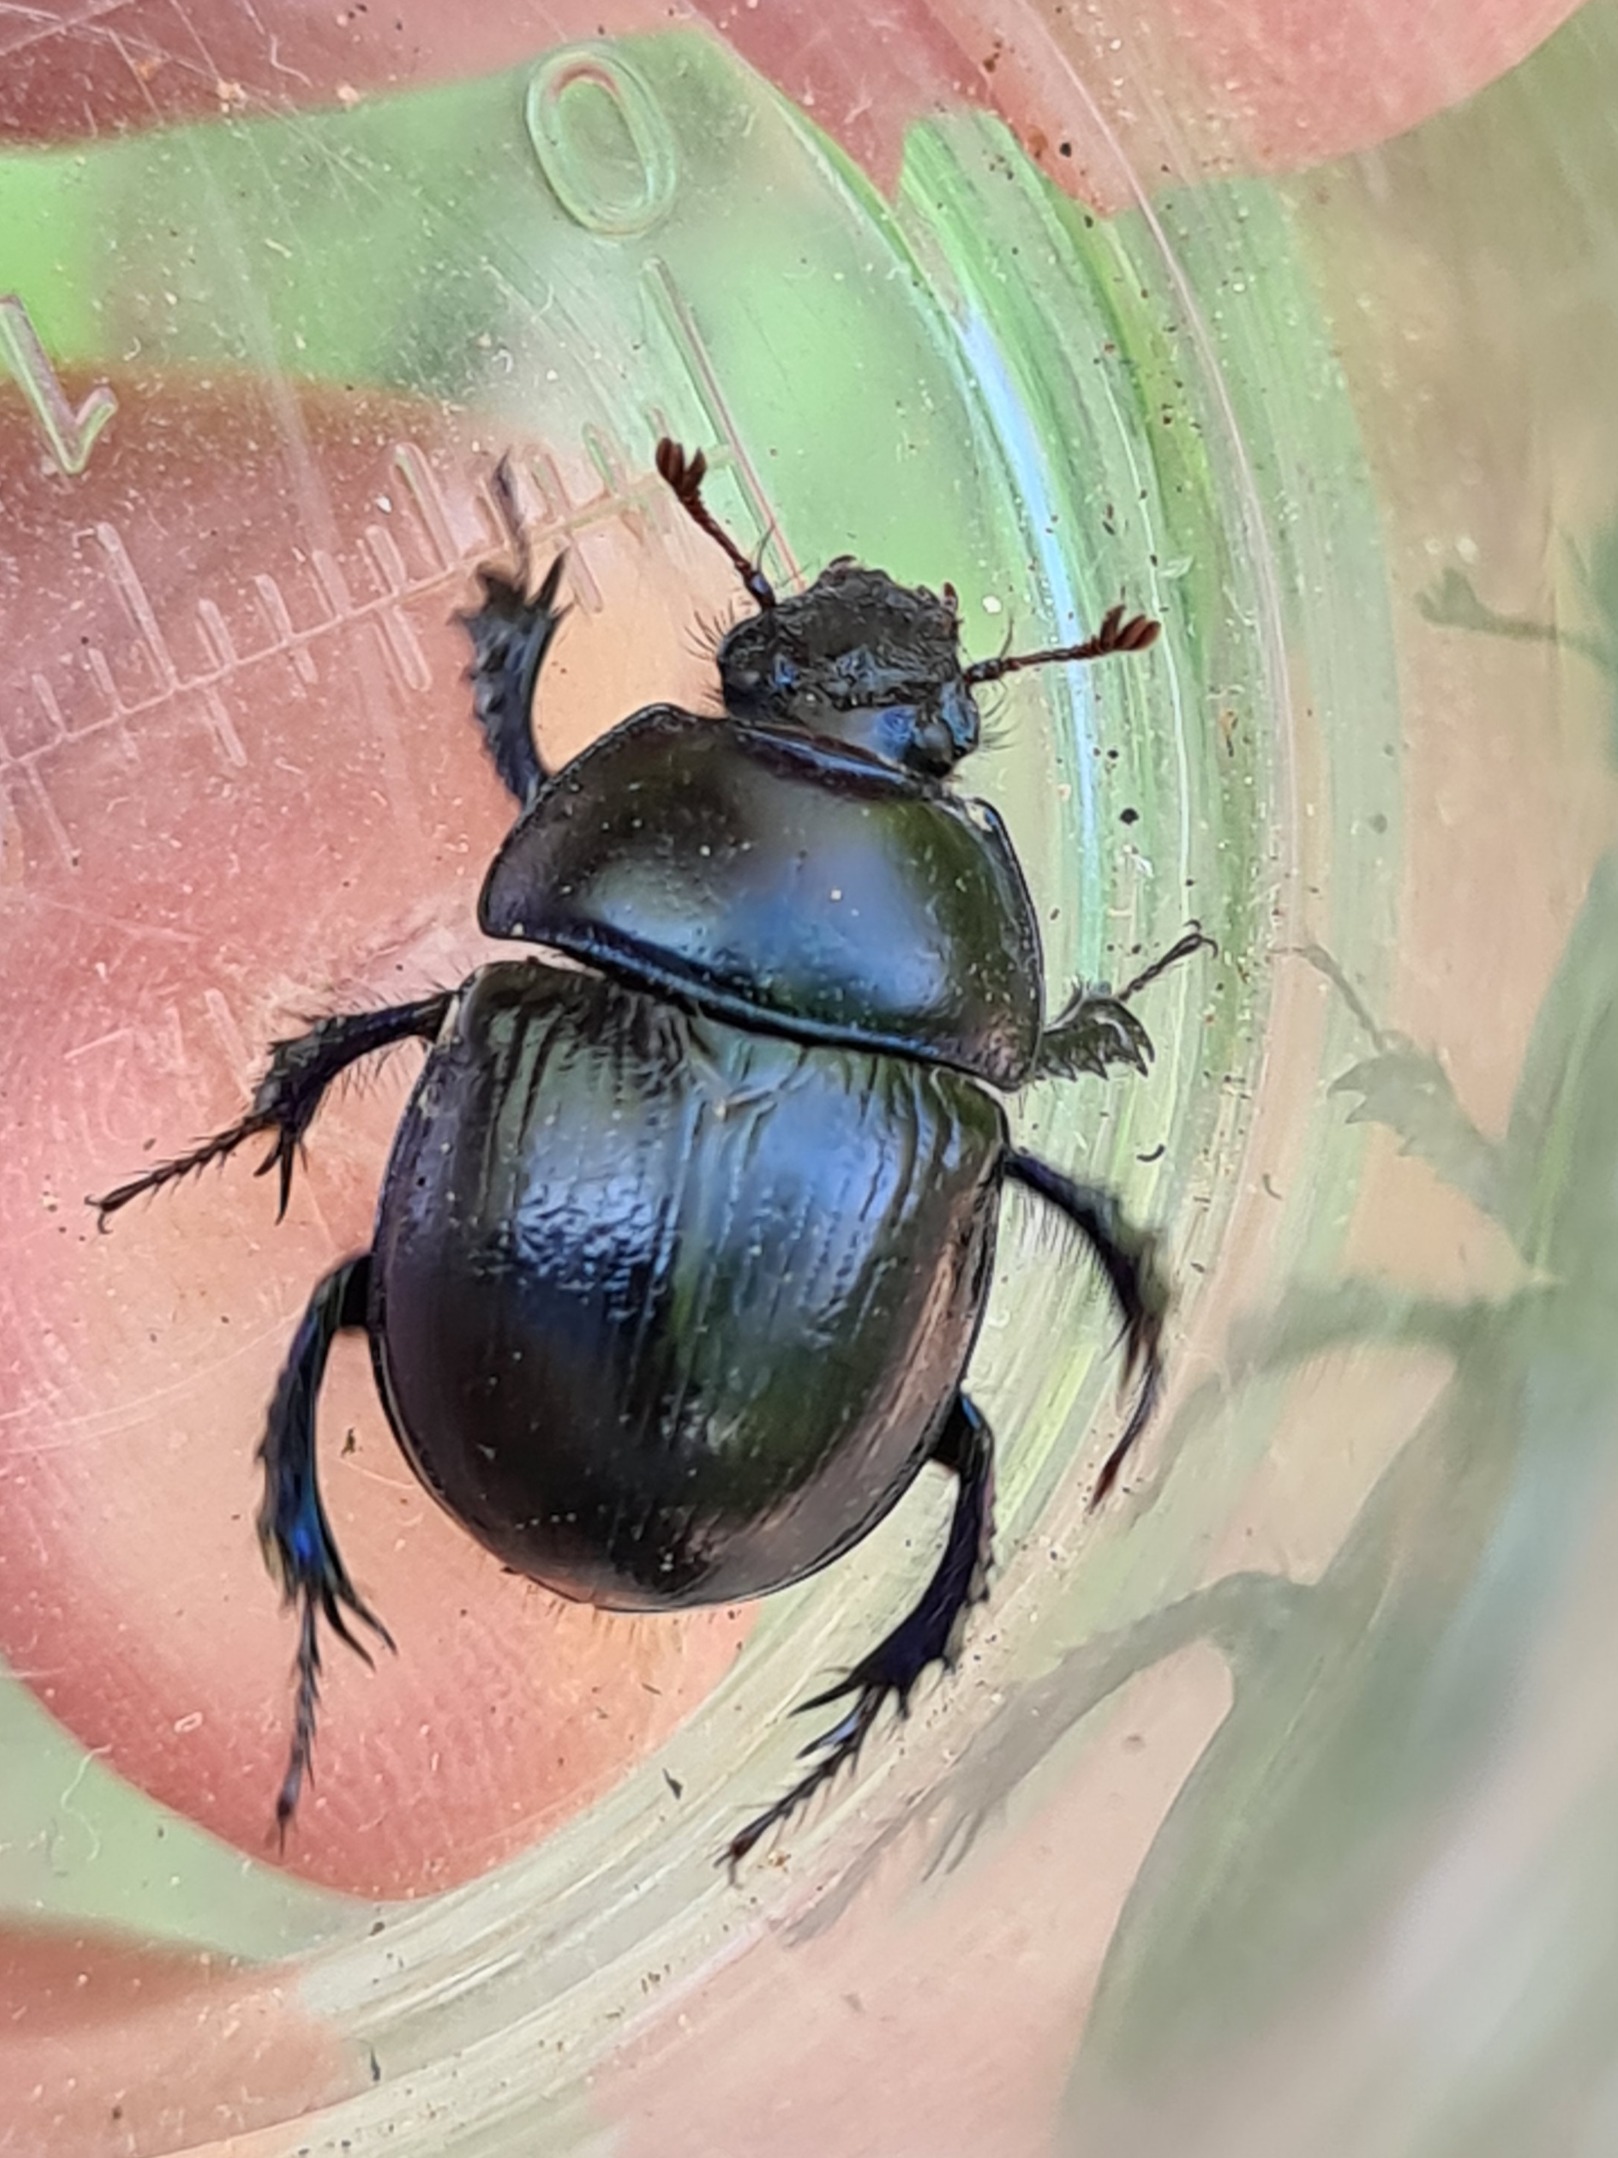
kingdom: Animalia
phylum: Arthropoda
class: Insecta
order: Coleoptera
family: Geotrupidae
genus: Anoplotrupes
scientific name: Anoplotrupes stercorosus
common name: Skovskarnbasse
